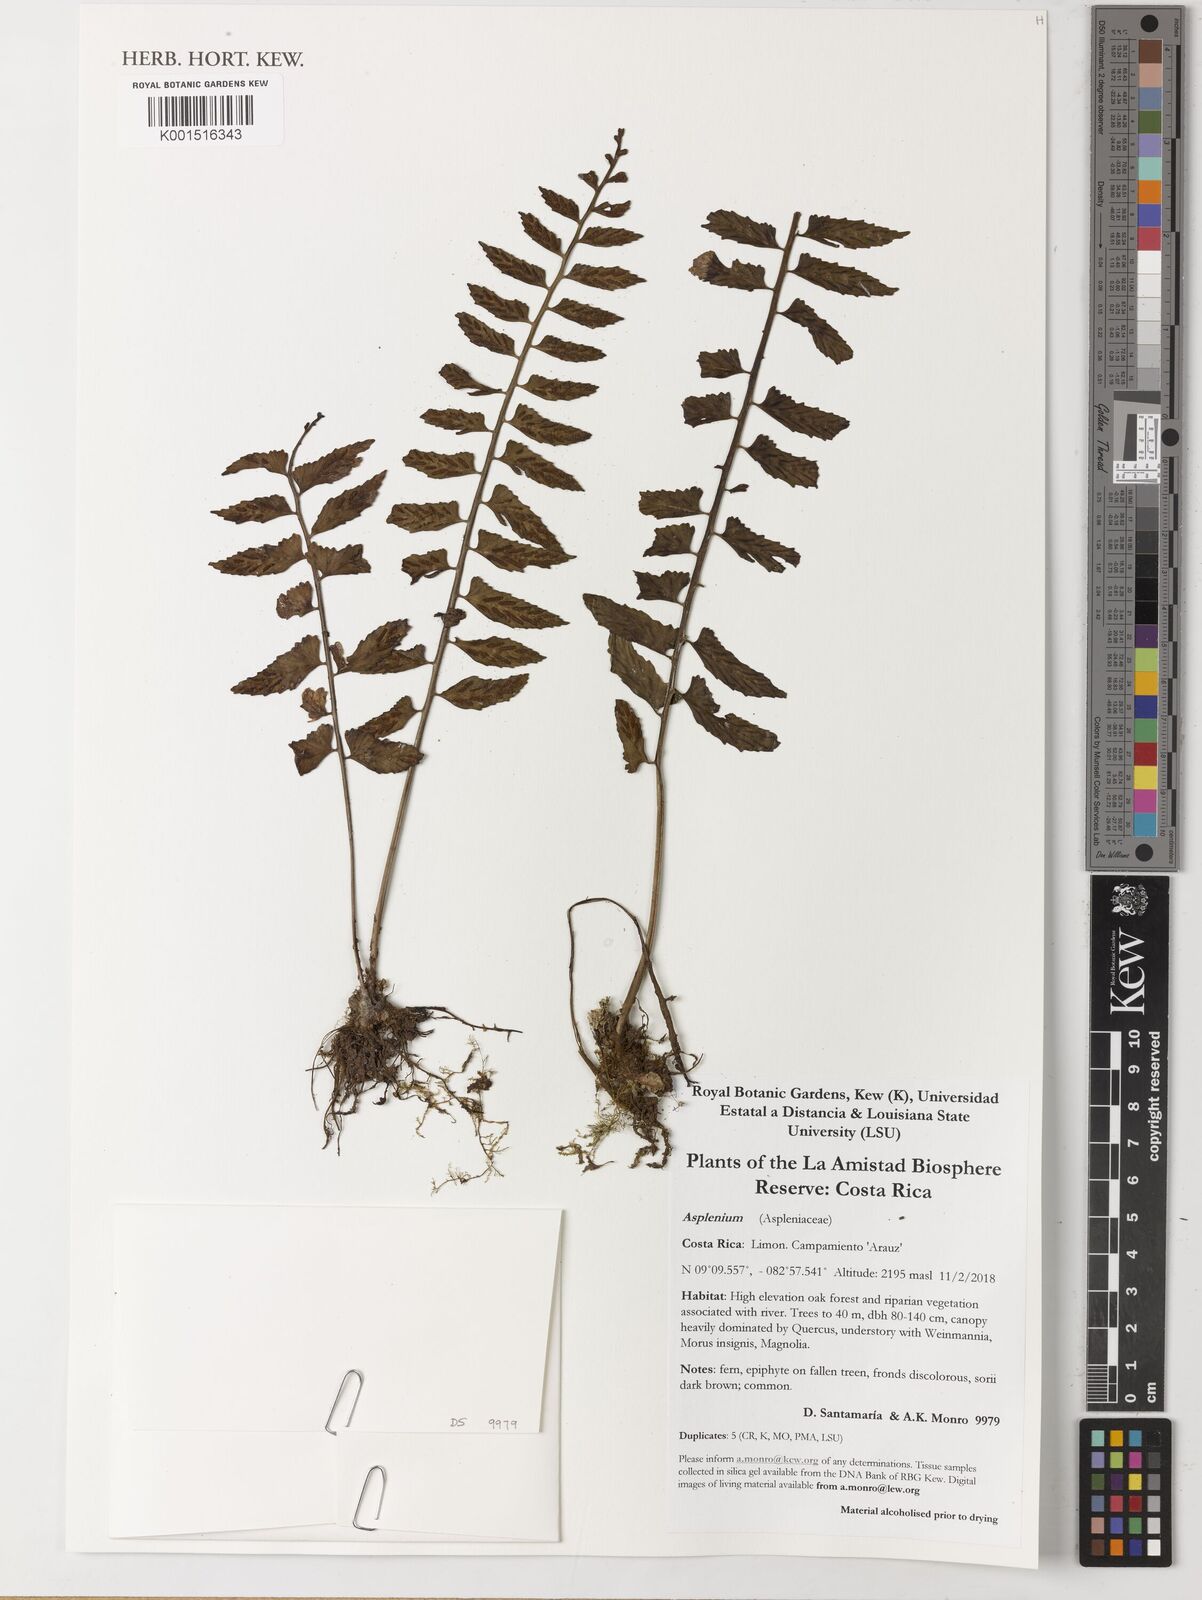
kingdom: Plantae
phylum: Tracheophyta
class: Polypodiopsida
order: Polypodiales
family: Aspleniaceae
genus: Asplenium
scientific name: Asplenium
